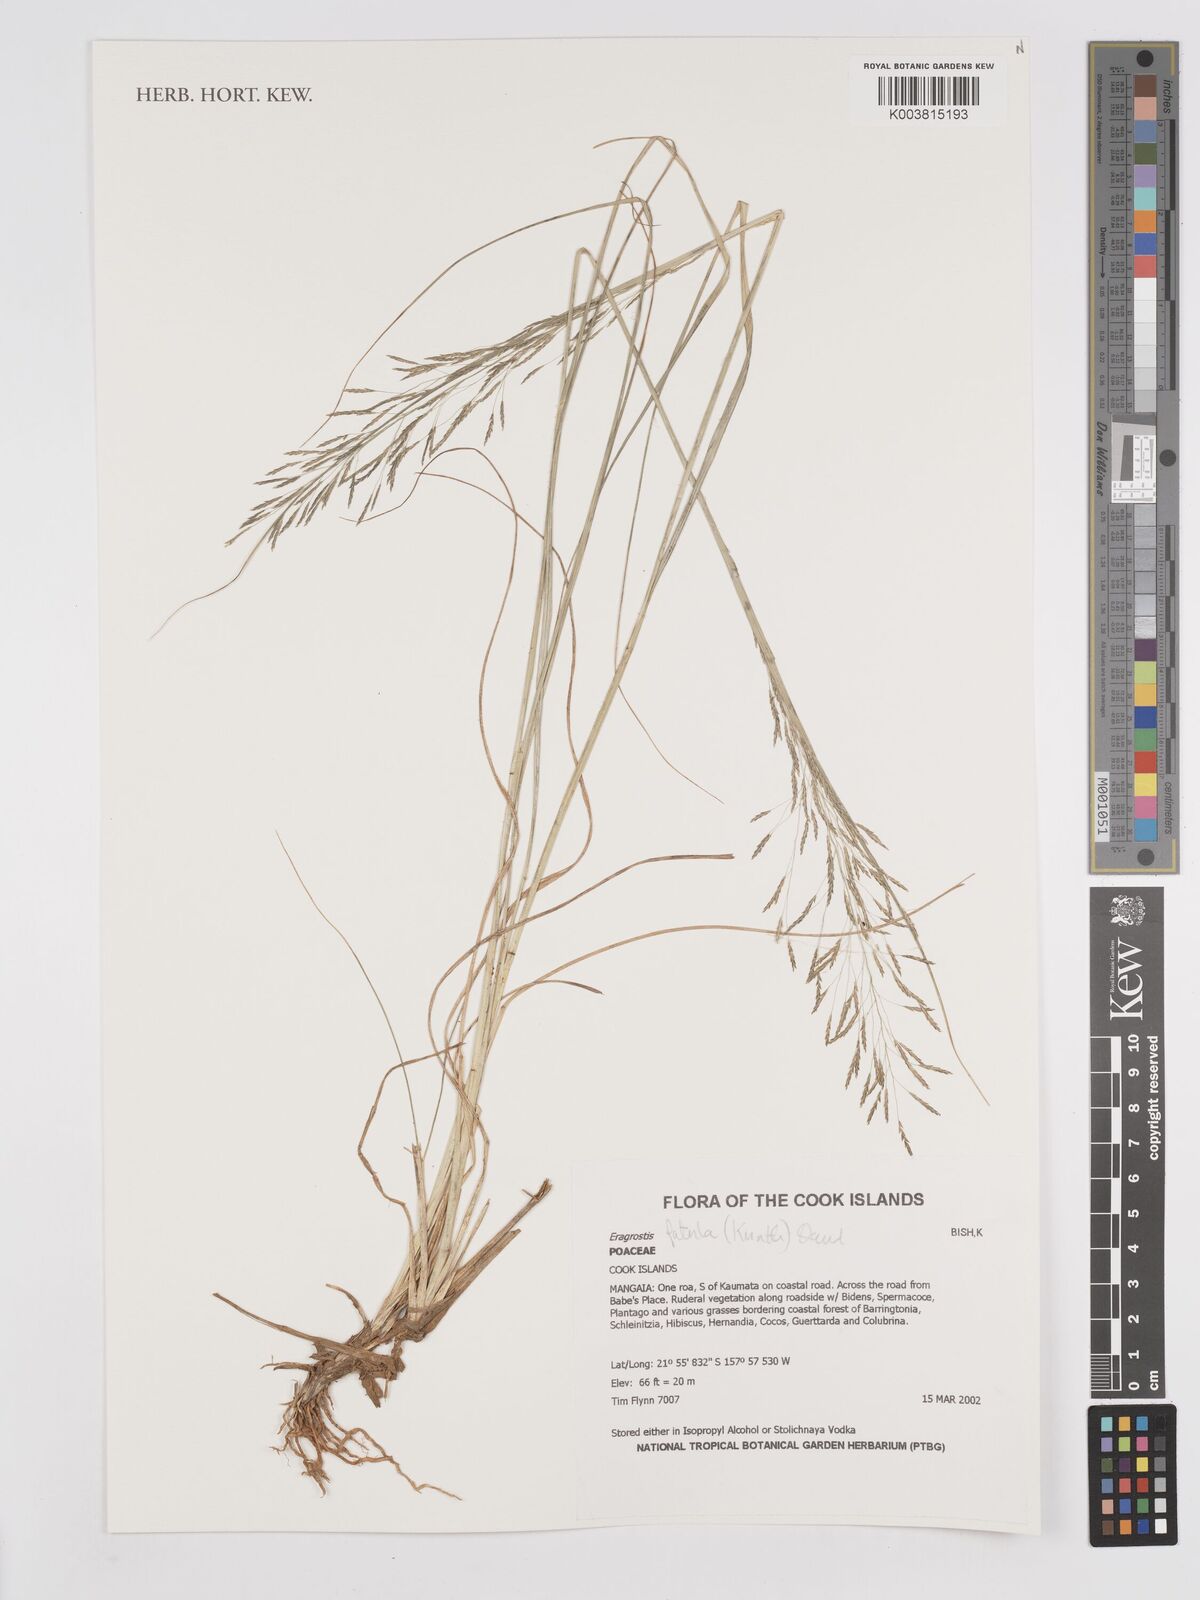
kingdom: Plantae
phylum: Tracheophyta
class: Liliopsida
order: Poales
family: Poaceae
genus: Eragrostis
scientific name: Eragrostis tenuifolia
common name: Elastic grass
